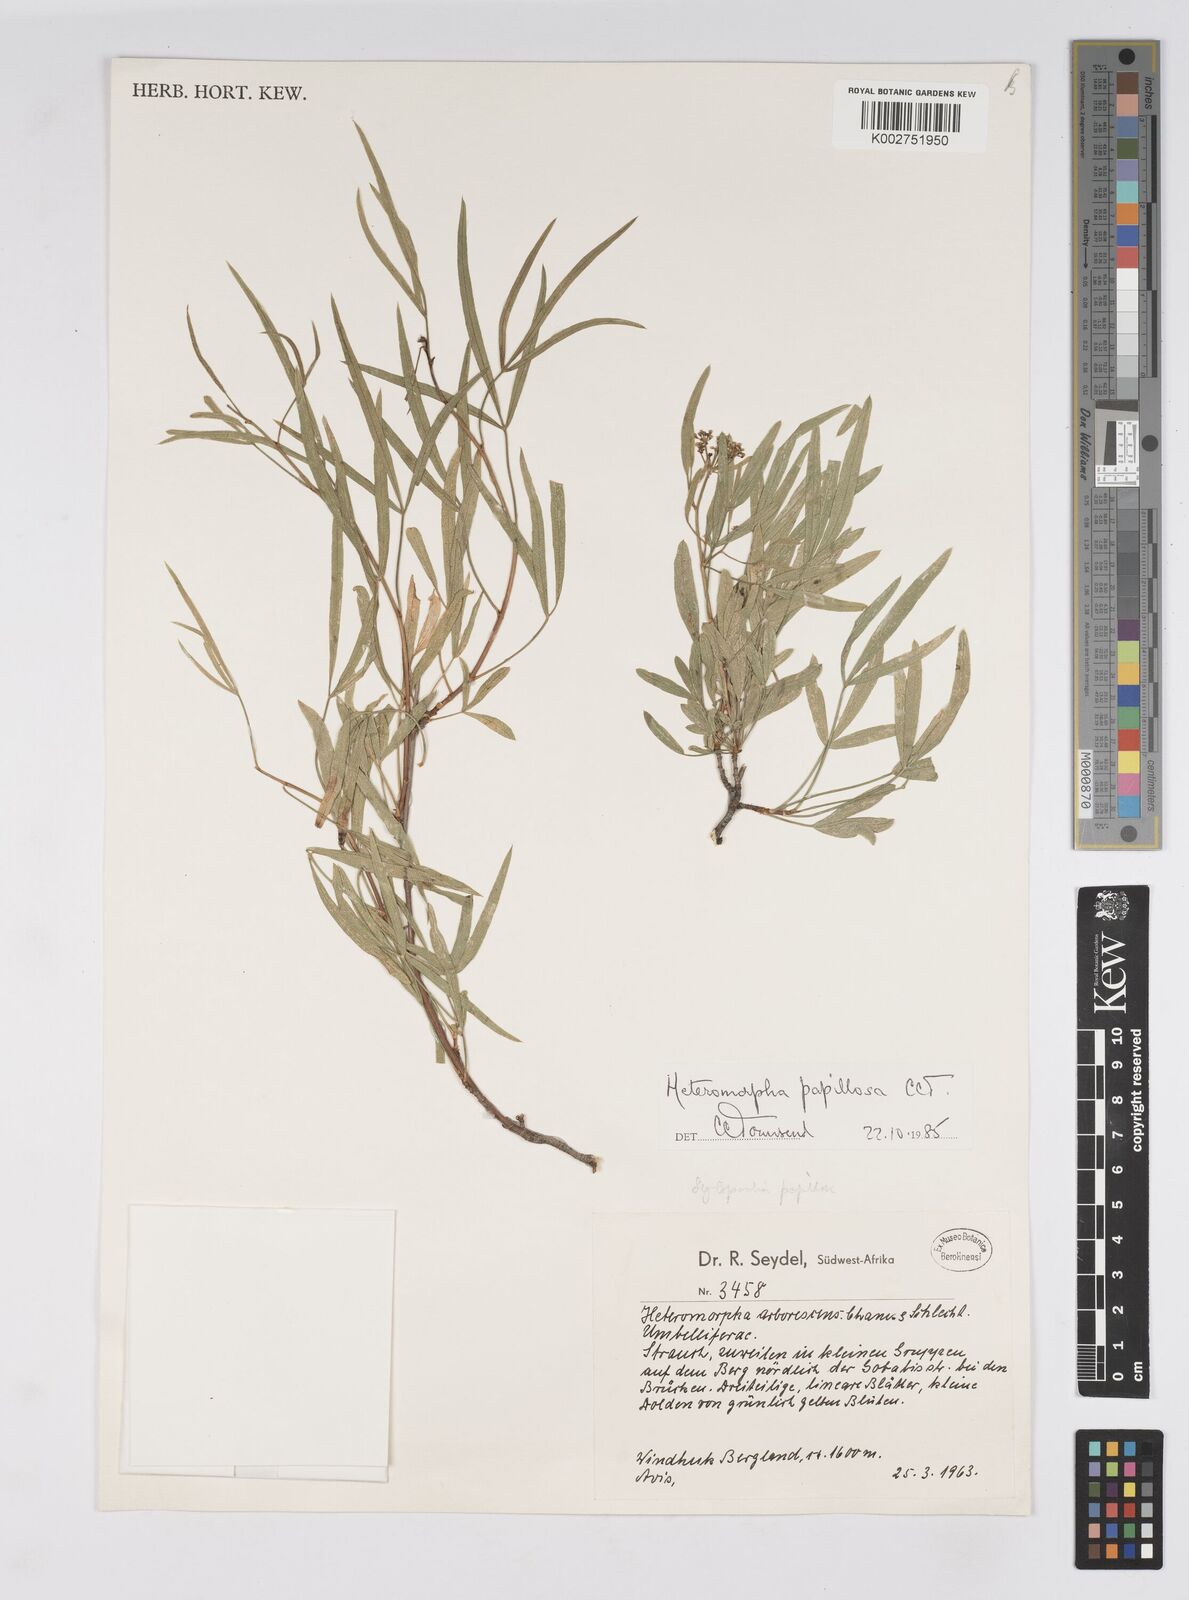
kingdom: Plantae
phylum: Tracheophyta
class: Magnoliopsida
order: Apiales
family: Apiaceae
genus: Heteromorpha
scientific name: Heteromorpha papillosa
